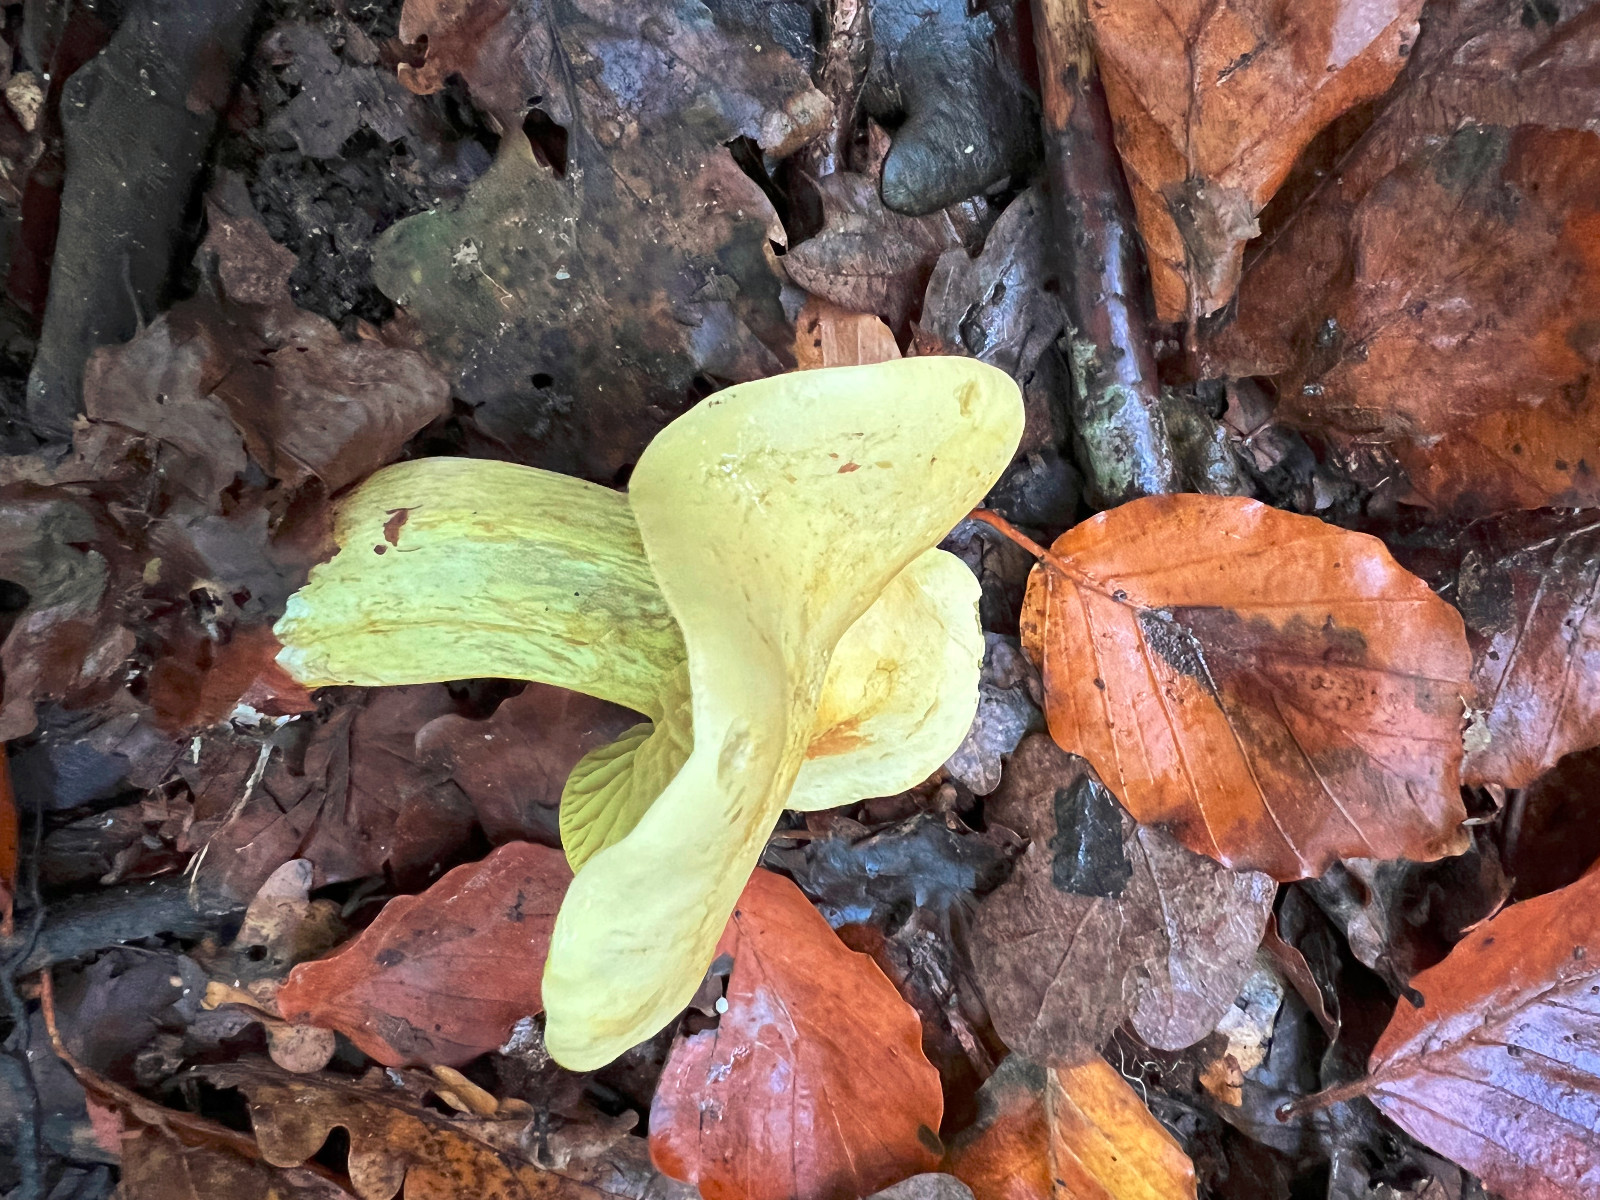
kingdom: Fungi
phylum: Basidiomycota
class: Agaricomycetes
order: Agaricales
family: Tricholomataceae
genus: Tricholoma
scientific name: Tricholoma sulphureum
